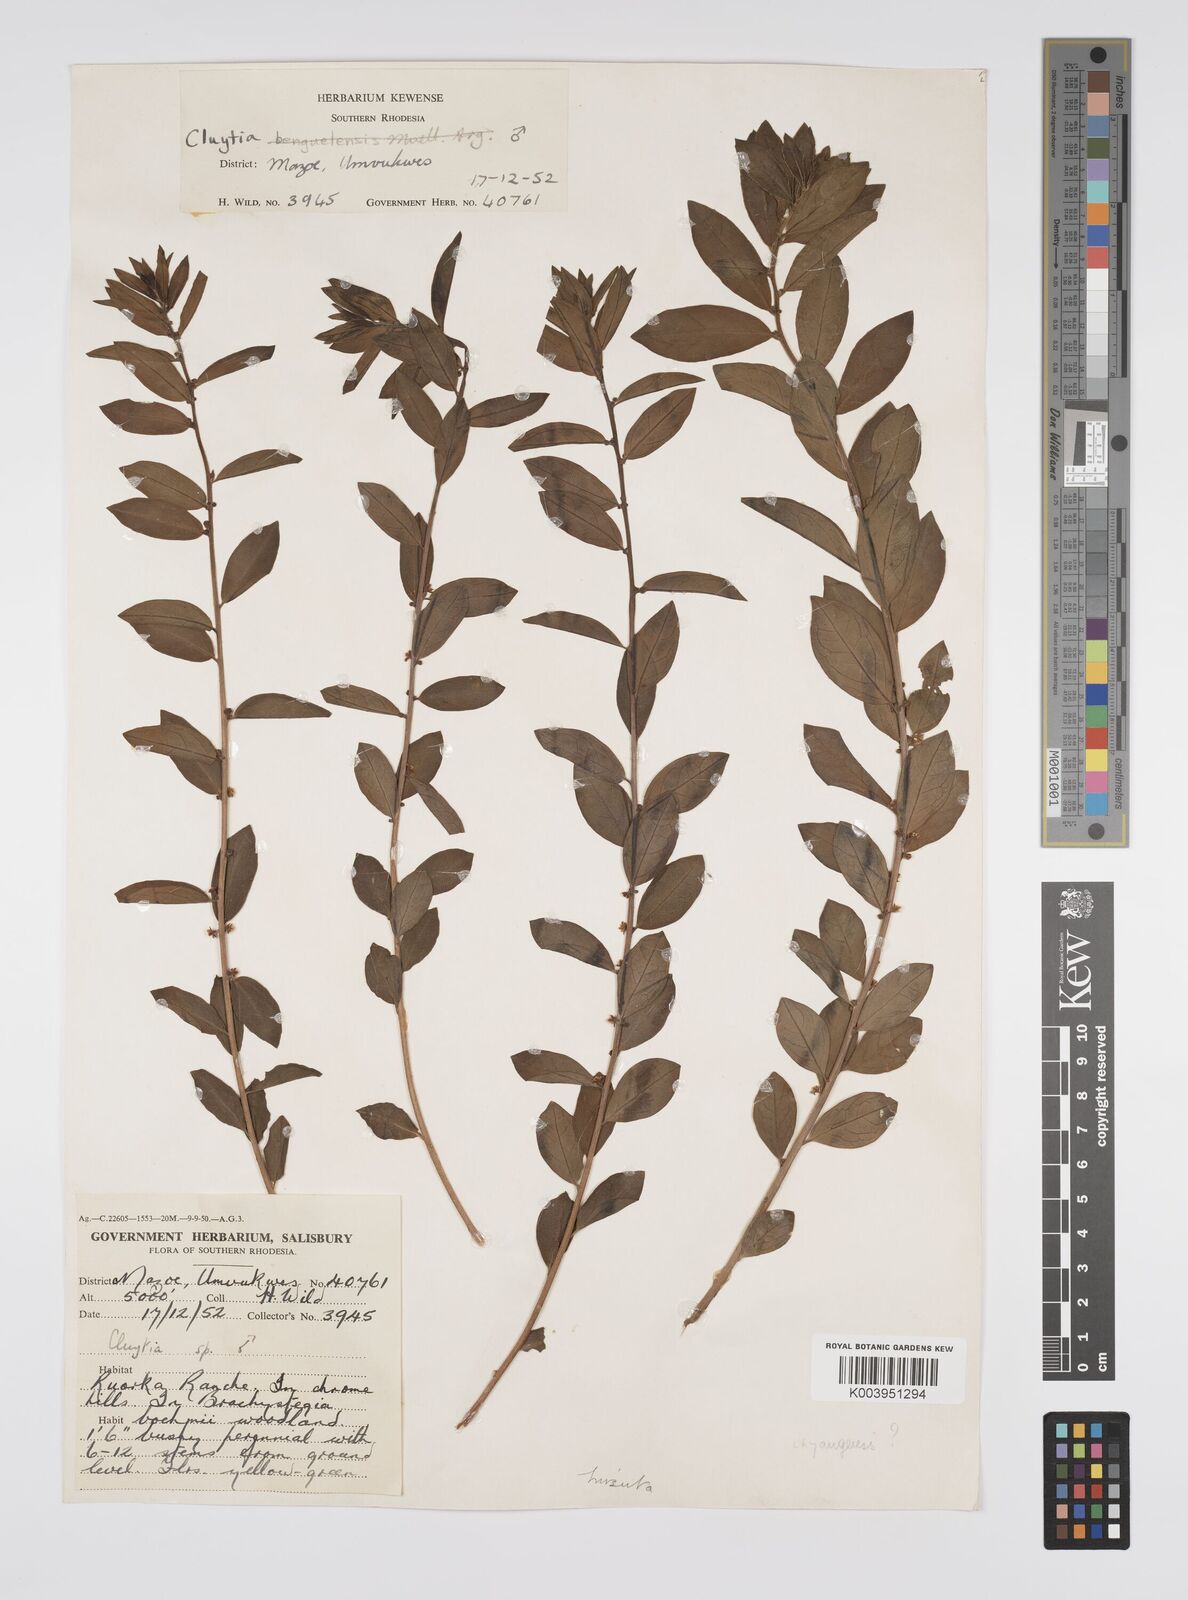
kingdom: Plantae
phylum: Tracheophyta
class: Magnoliopsida
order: Malpighiales
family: Peraceae
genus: Clutia
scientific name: Clutia hirsuta
